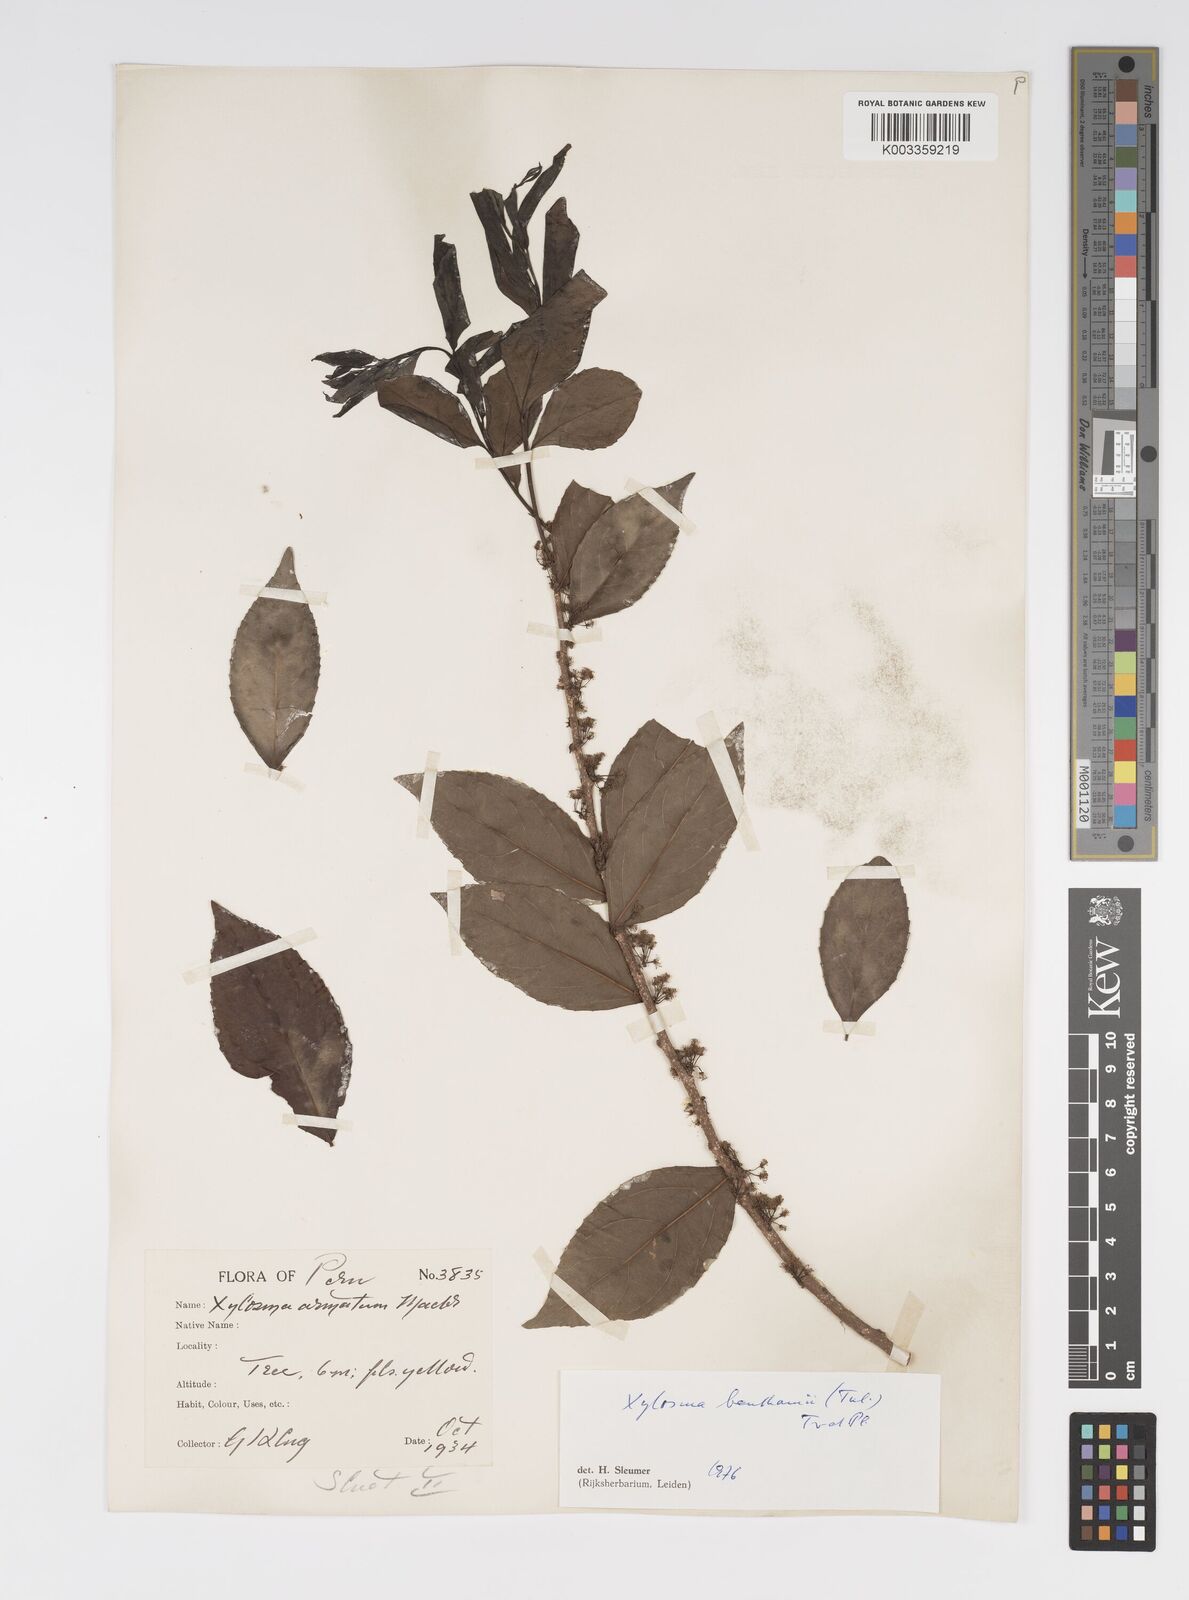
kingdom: Plantae
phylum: Tracheophyta
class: Magnoliopsida
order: Malpighiales
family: Salicaceae
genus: Xylosma
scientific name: Xylosma benthamii
